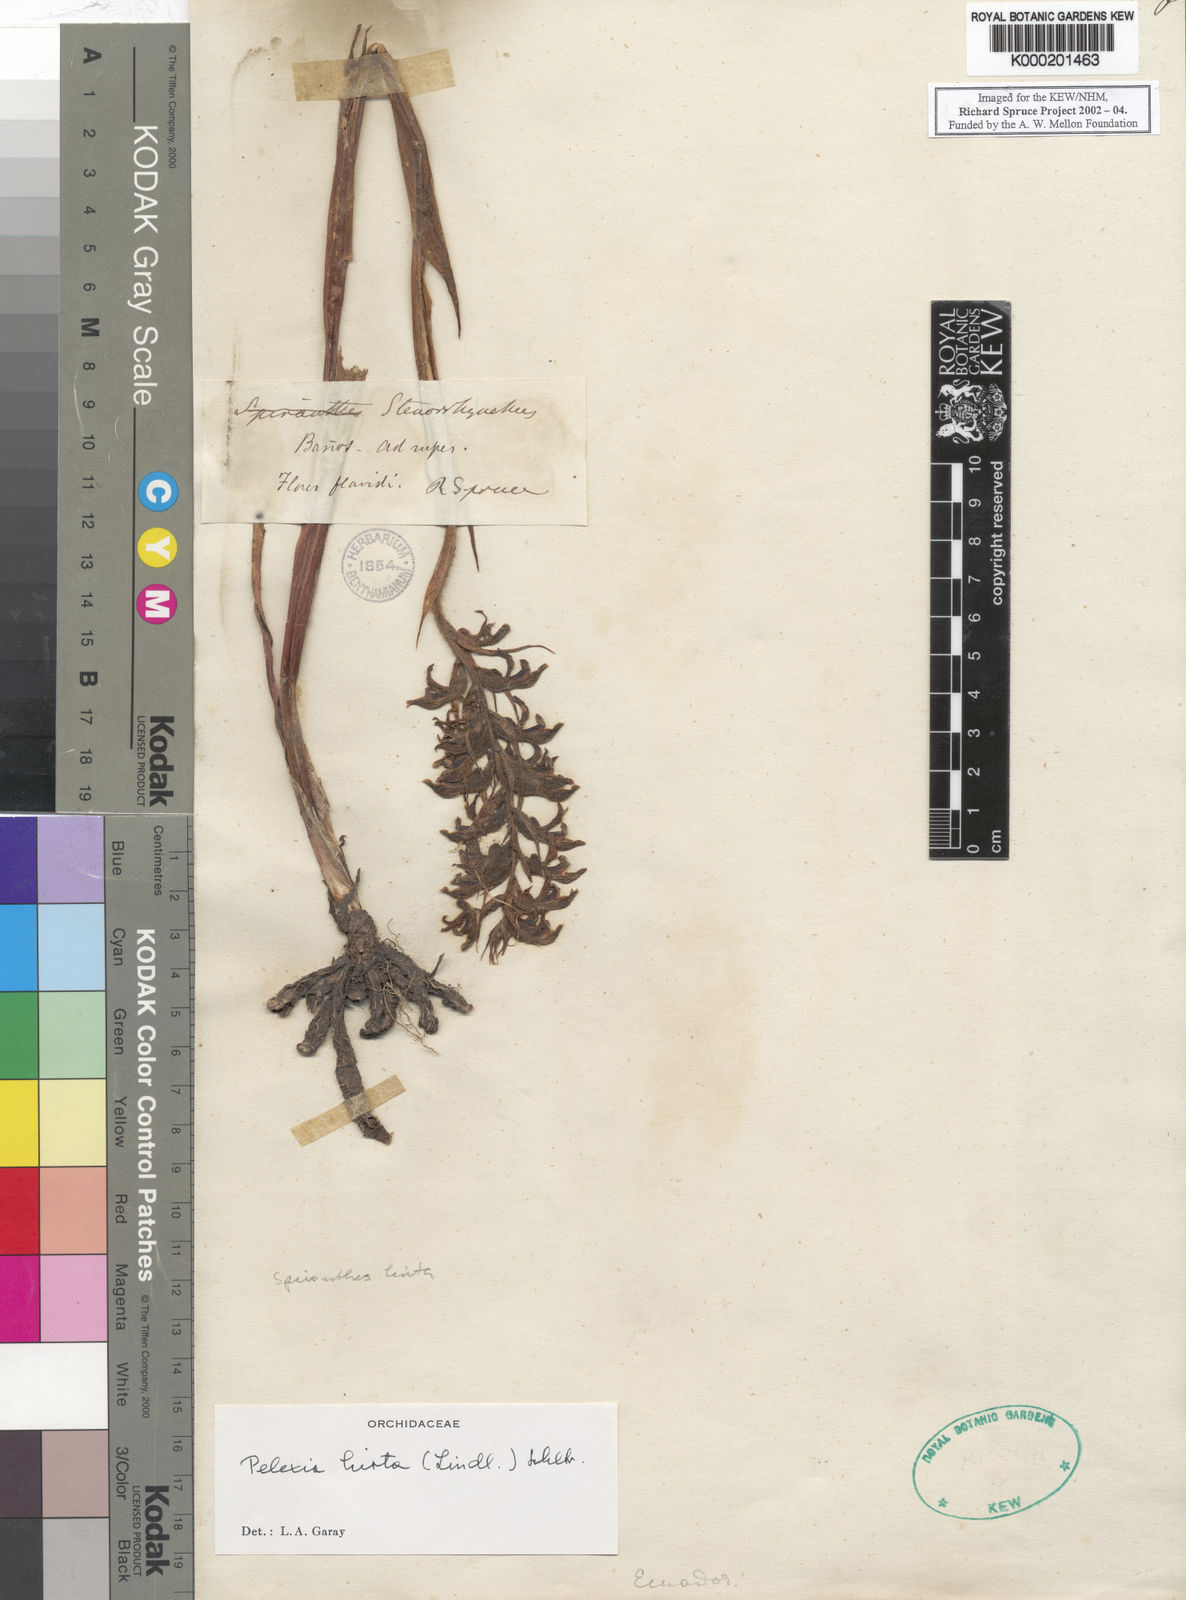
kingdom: Plantae
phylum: Tracheophyta
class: Liliopsida
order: Asparagales
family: Orchidaceae
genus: Pelexia
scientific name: Pelexia hirta
